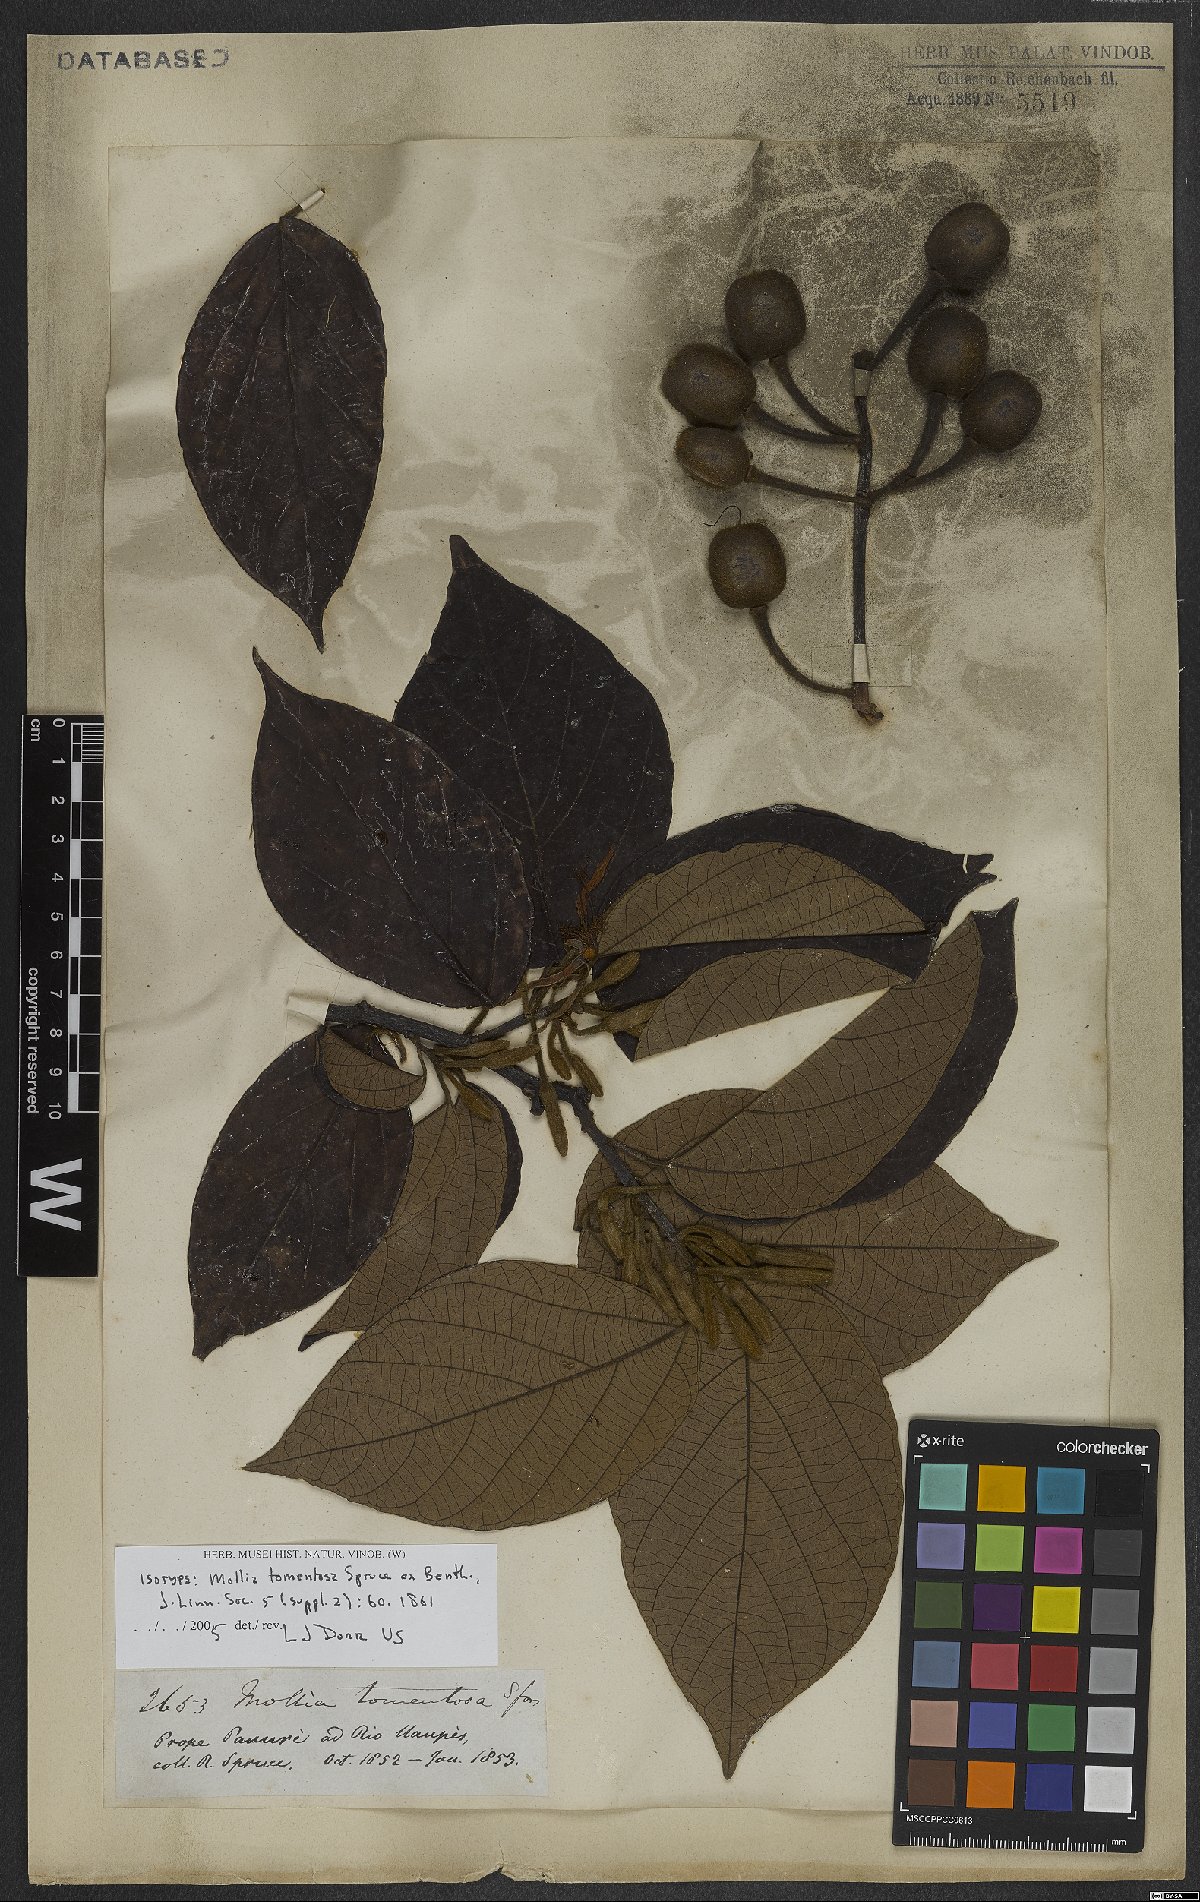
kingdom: Plantae
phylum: Tracheophyta
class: Magnoliopsida
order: Malvales
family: Malvaceae
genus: Mollia
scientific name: Mollia tomentosa
